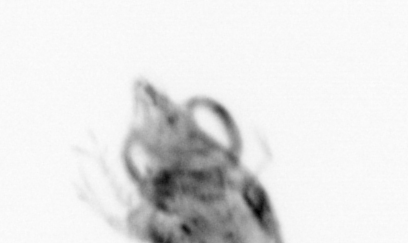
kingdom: Animalia
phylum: Arthropoda
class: Malacostraca
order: Decapoda
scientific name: Decapoda
